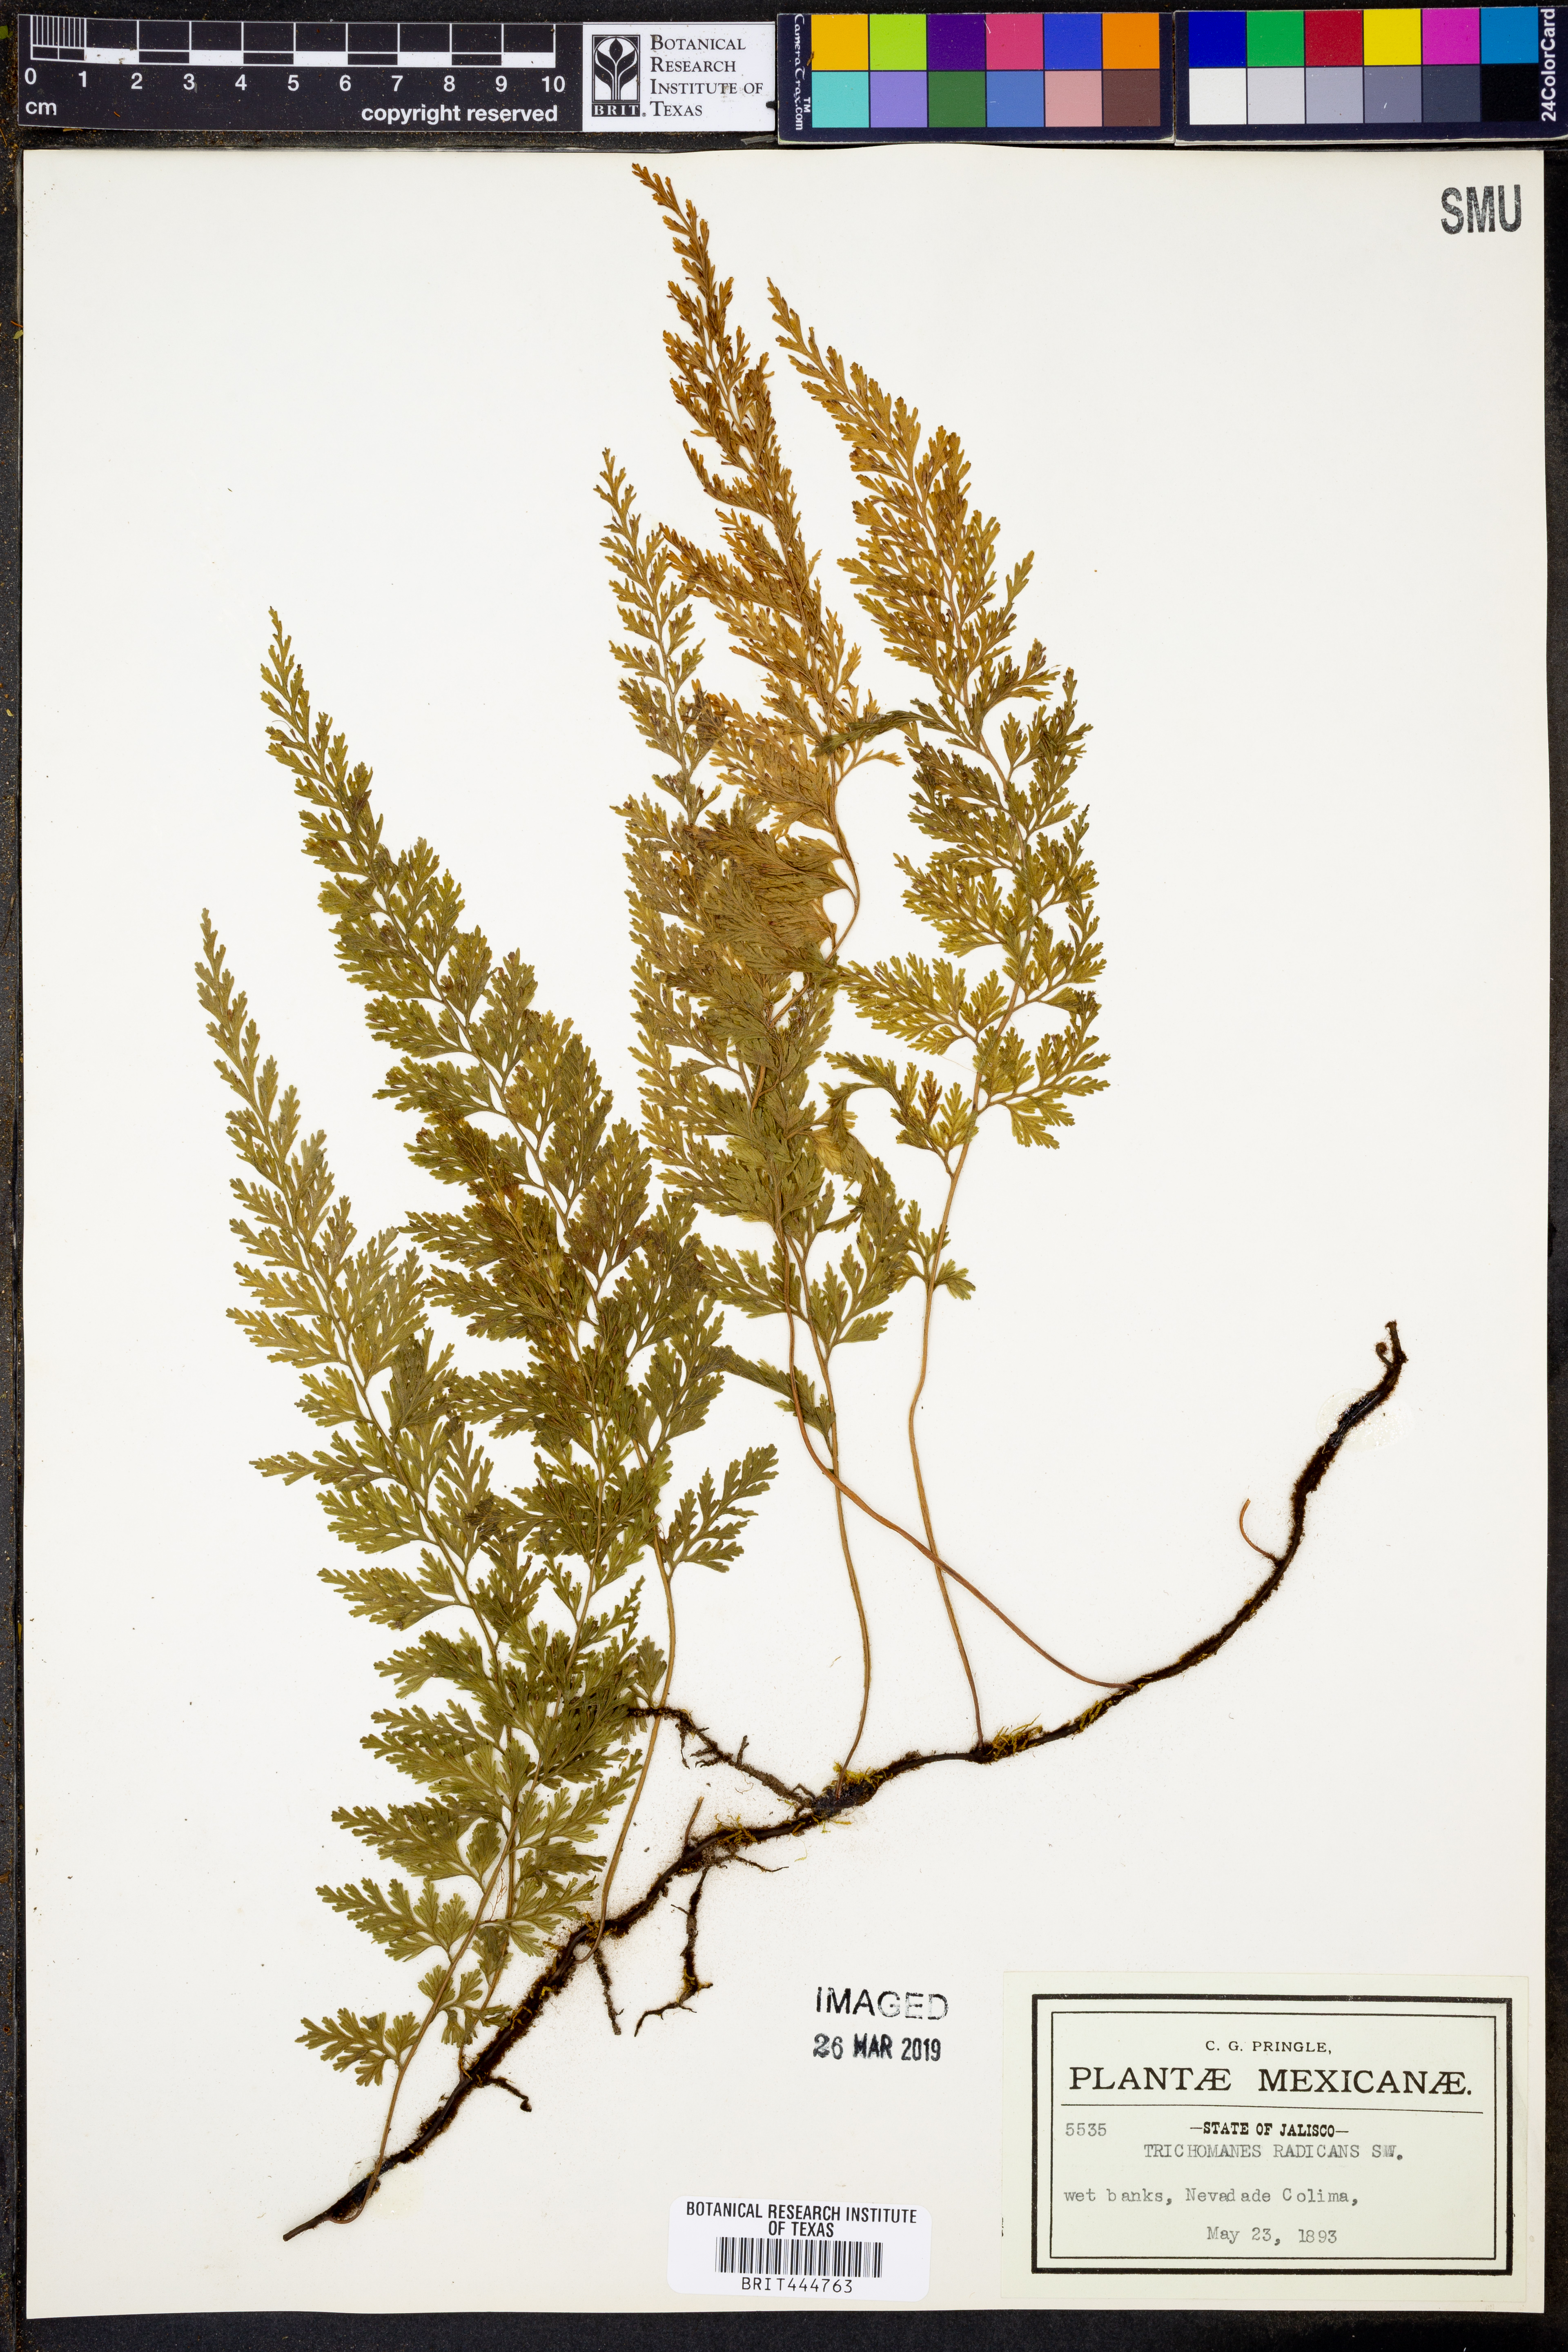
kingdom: Plantae
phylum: Tracheophyta
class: Polypodiopsida
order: Hymenophyllales
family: Hymenophyllaceae
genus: Vandenboschia
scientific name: Vandenboschia radicans
